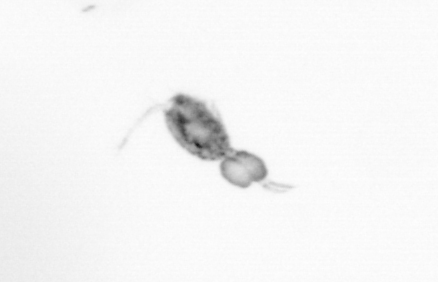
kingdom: Animalia
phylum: Arthropoda
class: Copepoda
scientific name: Copepoda
